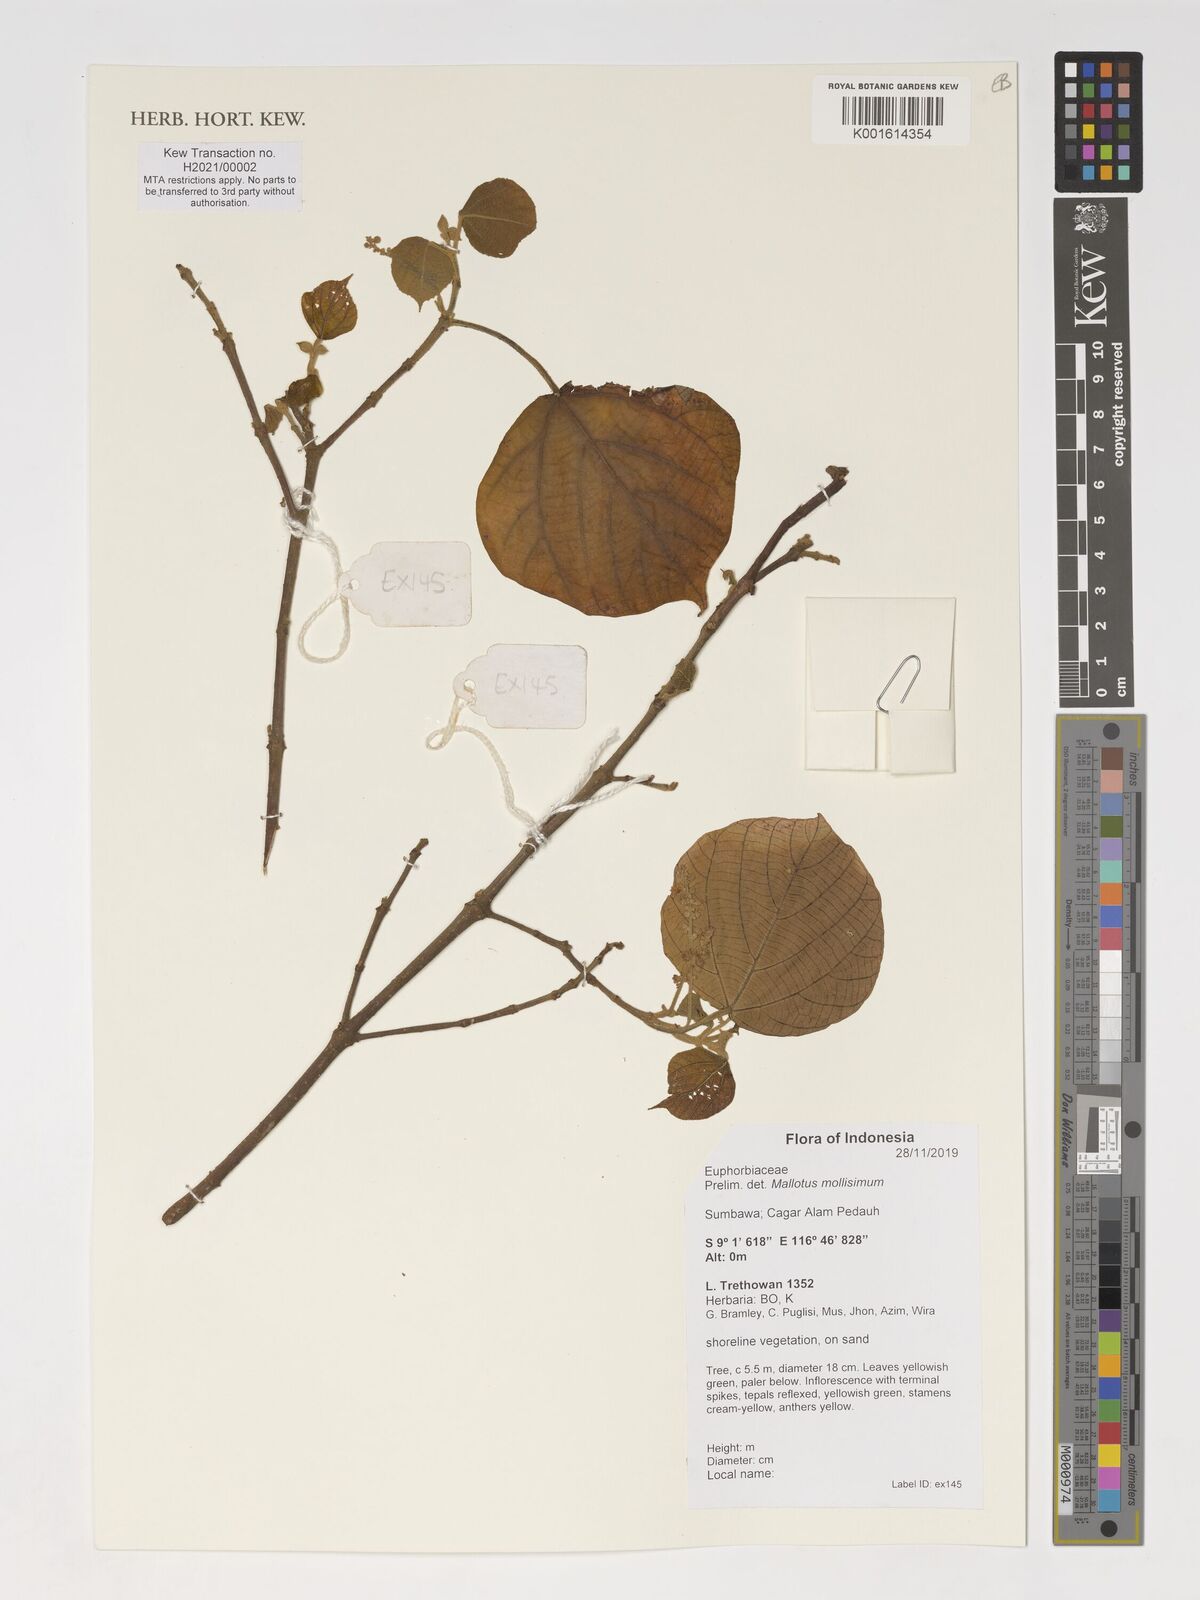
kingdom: Plantae
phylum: Tracheophyta
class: Magnoliopsida
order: Malpighiales
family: Euphorbiaceae
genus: Mallotus
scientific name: Mallotus mollissimus
